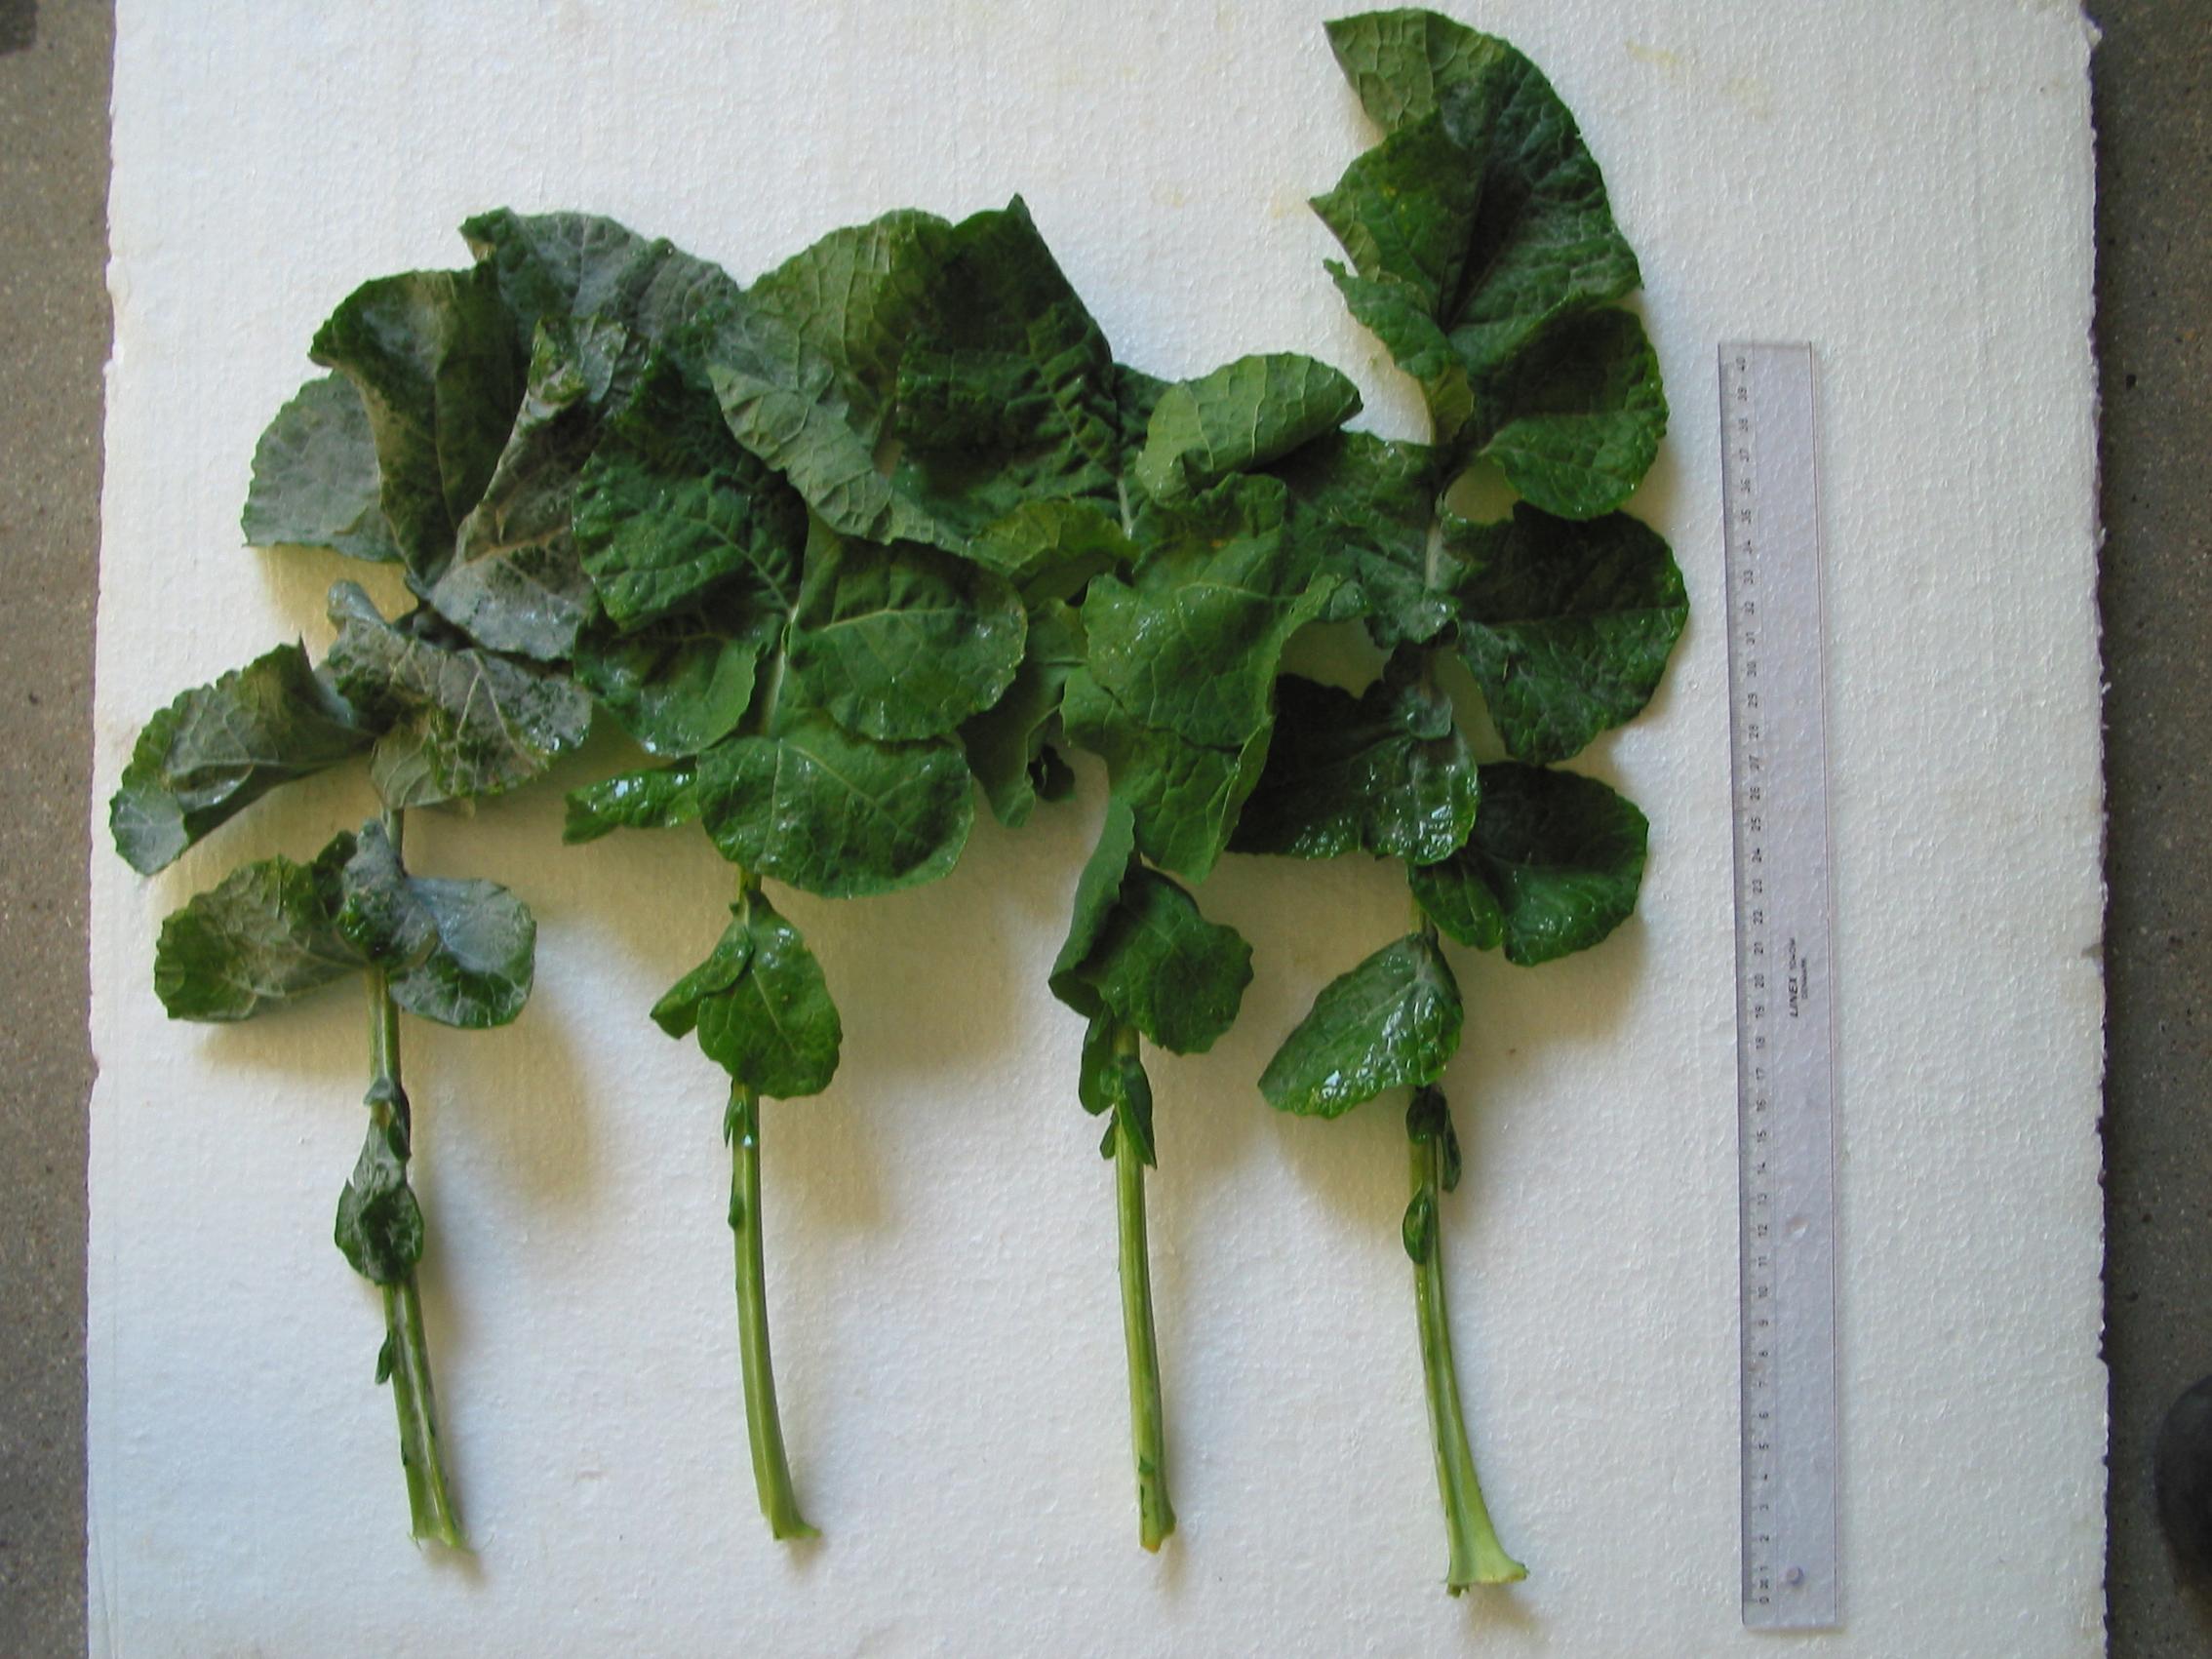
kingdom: Plantae
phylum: Tracheophyta
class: Magnoliopsida
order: Brassicales
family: Brassicaceae
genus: Brassica
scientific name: Brassica napus
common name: Rape
